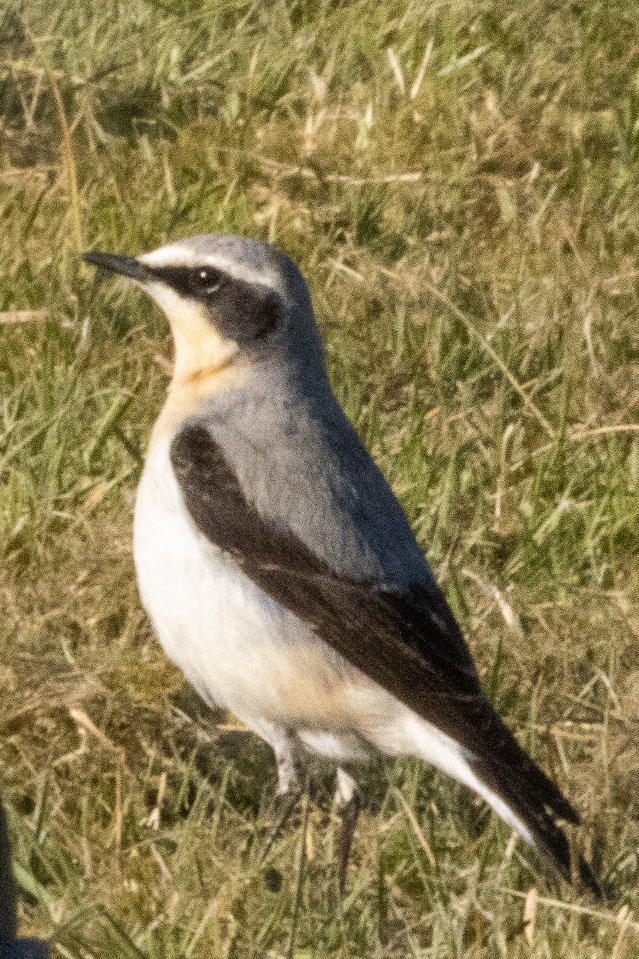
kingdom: Animalia
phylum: Chordata
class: Aves
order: Passeriformes
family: Muscicapidae
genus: Oenanthe
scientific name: Oenanthe oenanthe
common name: Stenpikker
